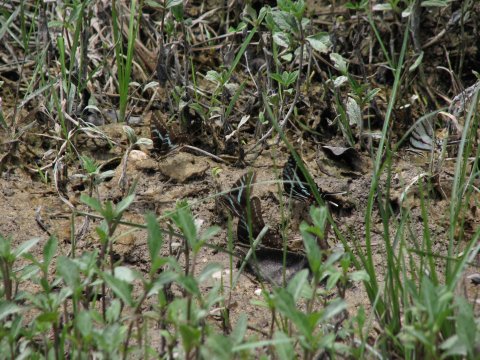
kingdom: Animalia
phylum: Arthropoda
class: Insecta
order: Lepidoptera
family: Papilionidae
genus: Protographium
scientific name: Protographium philolaus
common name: Dark Zebra Swallowtail
